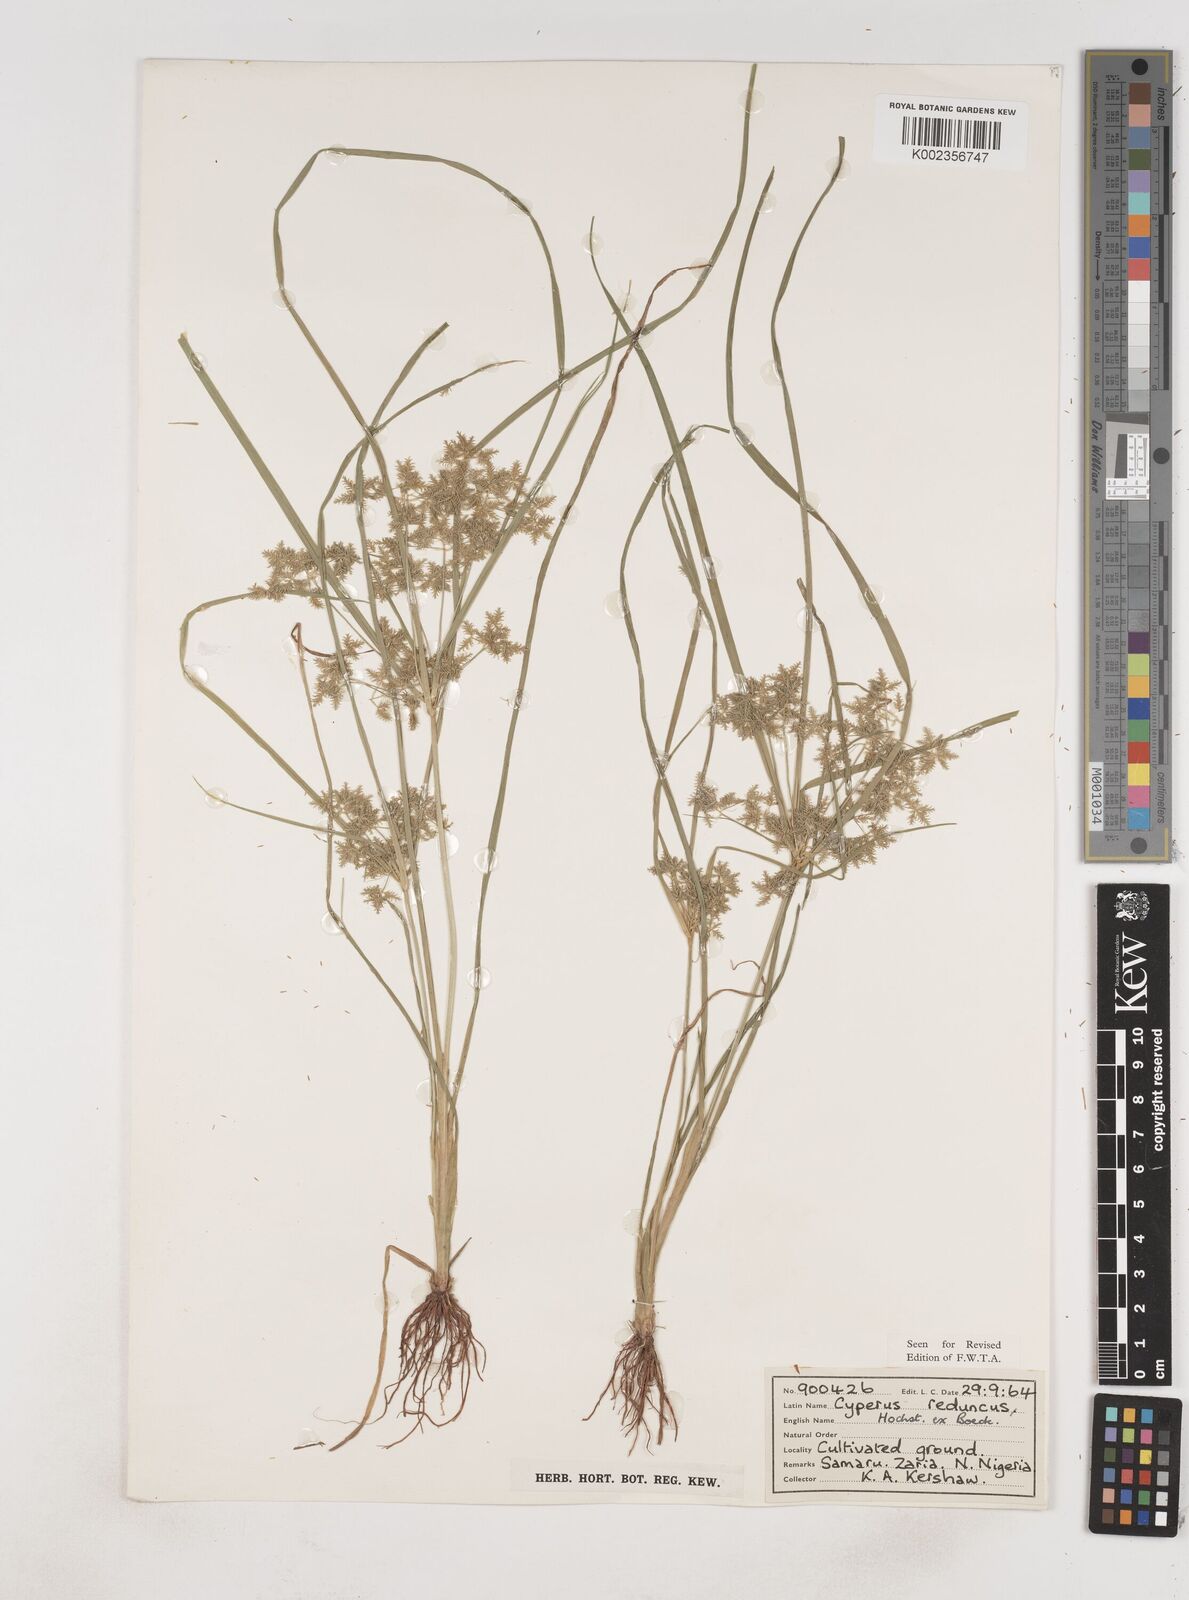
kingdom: Plantae
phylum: Tracheophyta
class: Liliopsida
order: Poales
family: Cyperaceae
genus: Cyperus
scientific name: Cyperus reduncus
